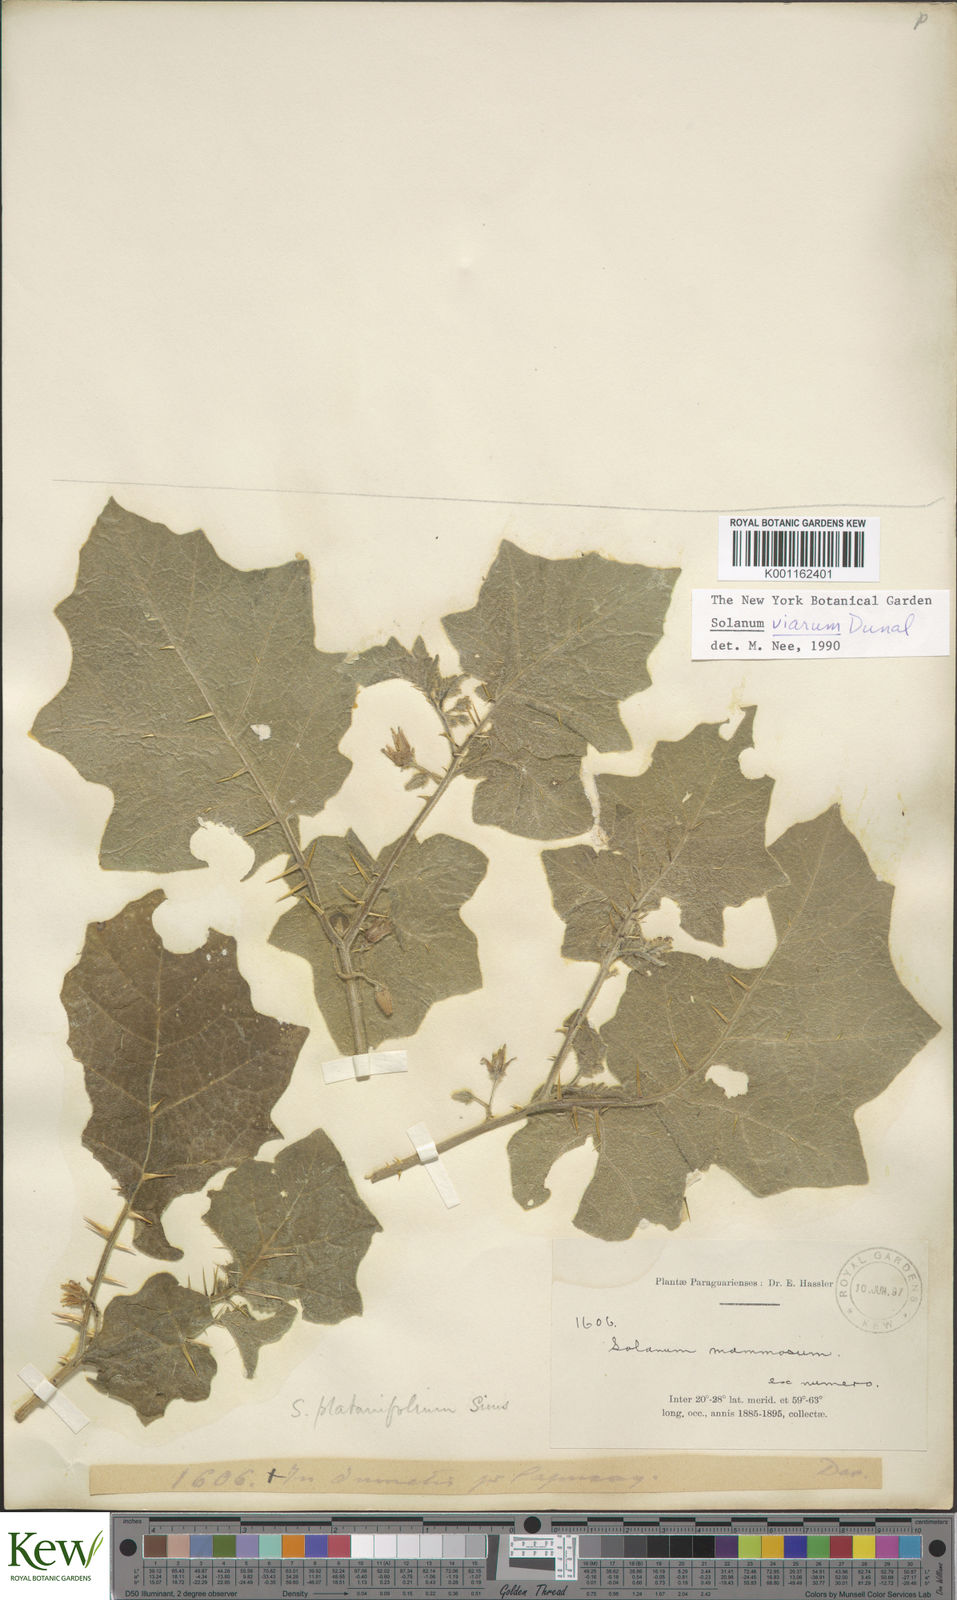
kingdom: Plantae
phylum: Tracheophyta
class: Magnoliopsida
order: Solanales
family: Solanaceae
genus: Solanum
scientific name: Solanum viarum
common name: Tropical soda apple
